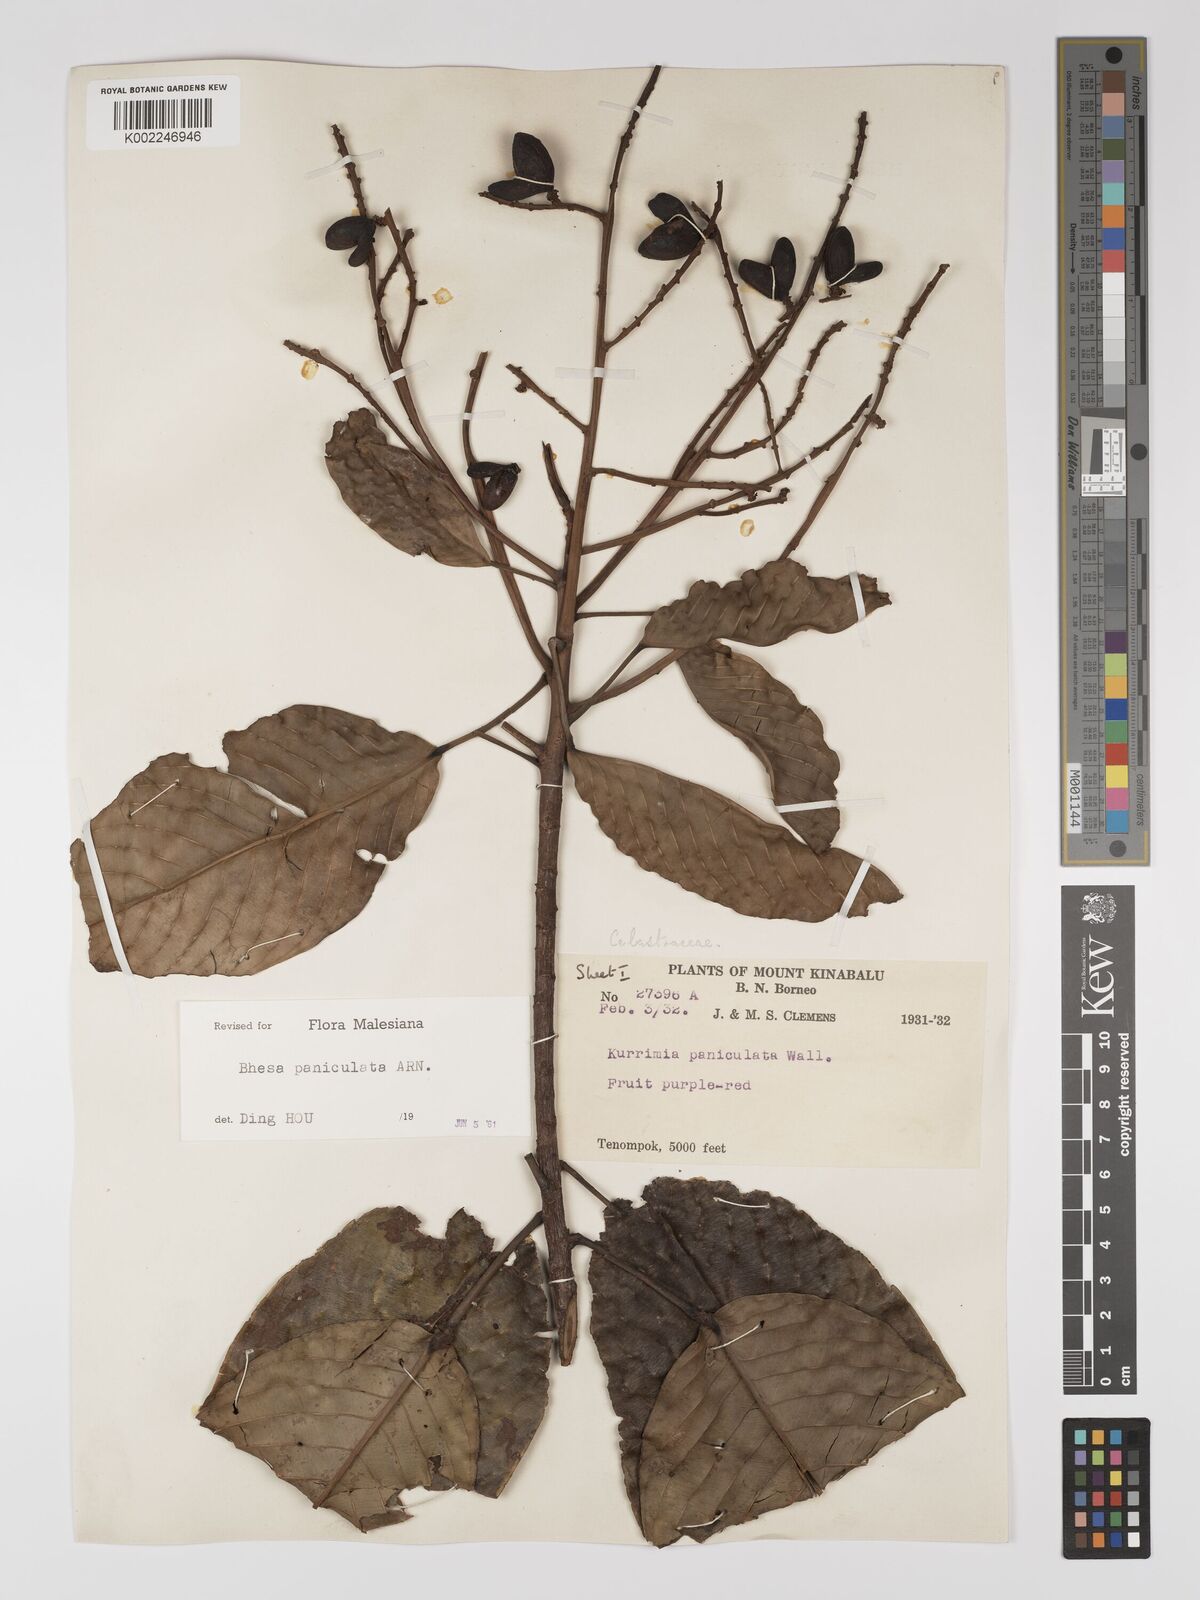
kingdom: Plantae
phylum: Tracheophyta
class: Magnoliopsida
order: Malpighiales
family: Centroplacaceae
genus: Bhesa
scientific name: Bhesa paniculata
